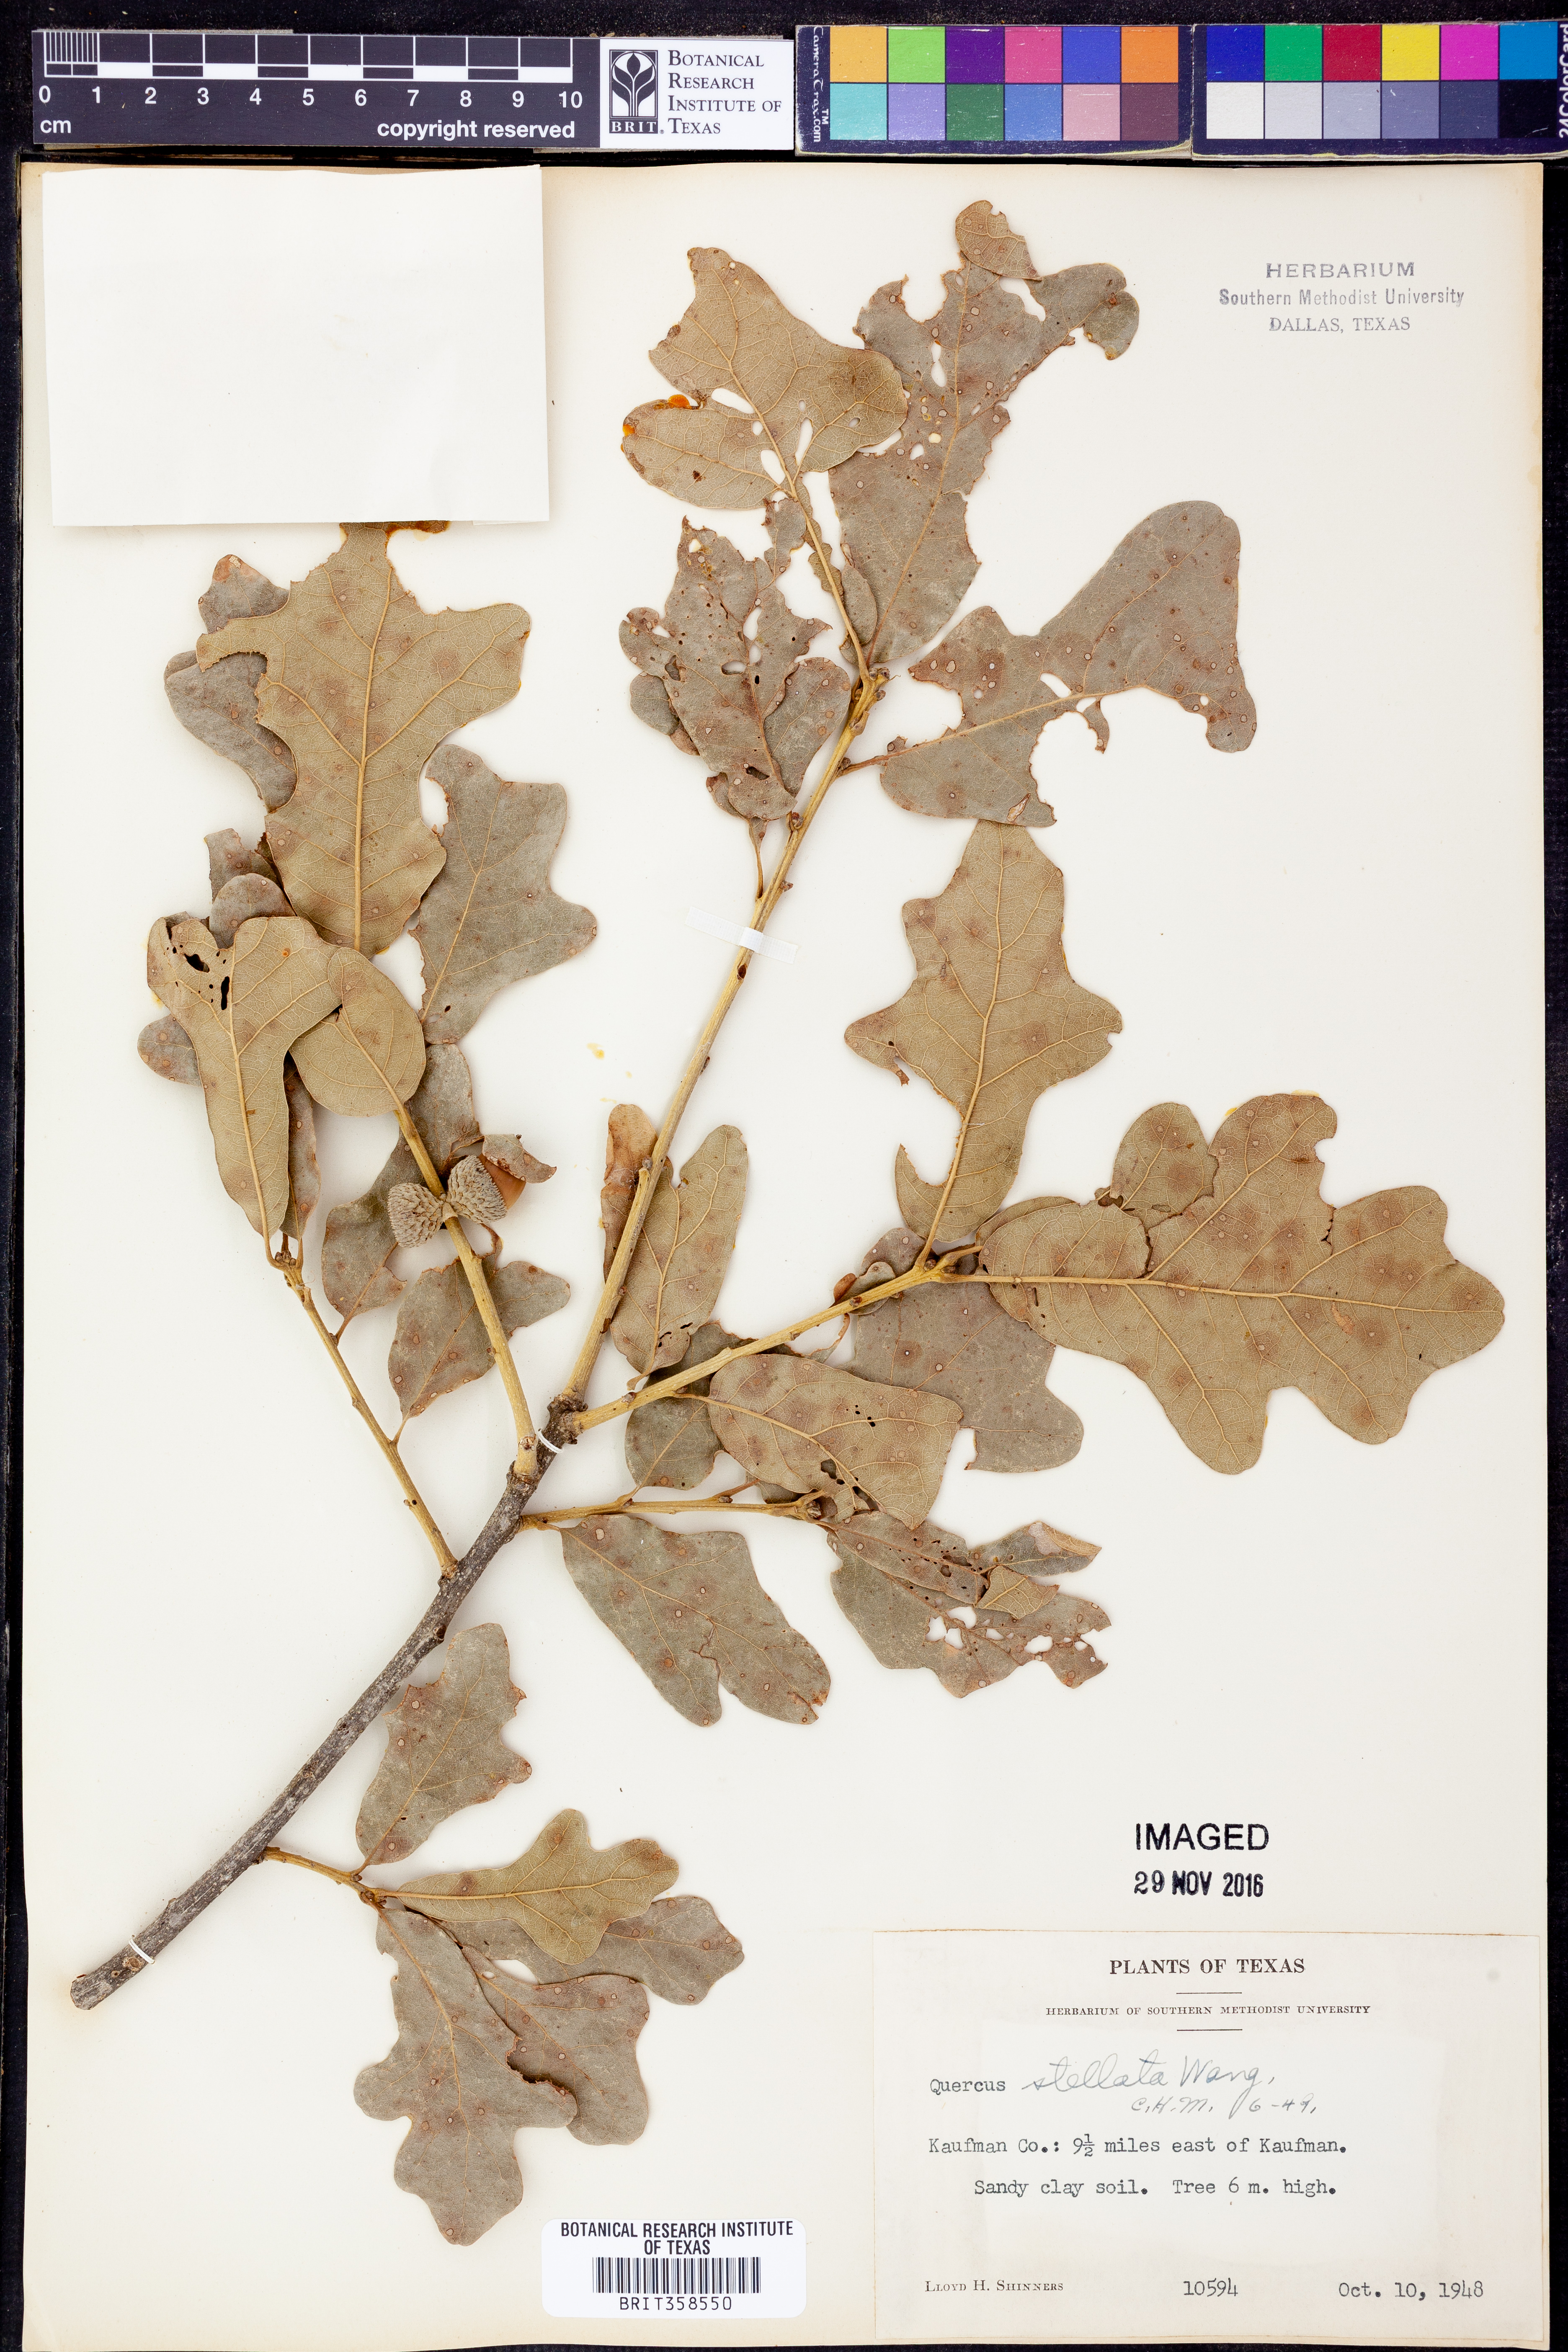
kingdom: Plantae
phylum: Tracheophyta
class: Magnoliopsida
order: Fagales
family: Fagaceae
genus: Quercus
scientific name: Quercus stellata
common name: Post oak
